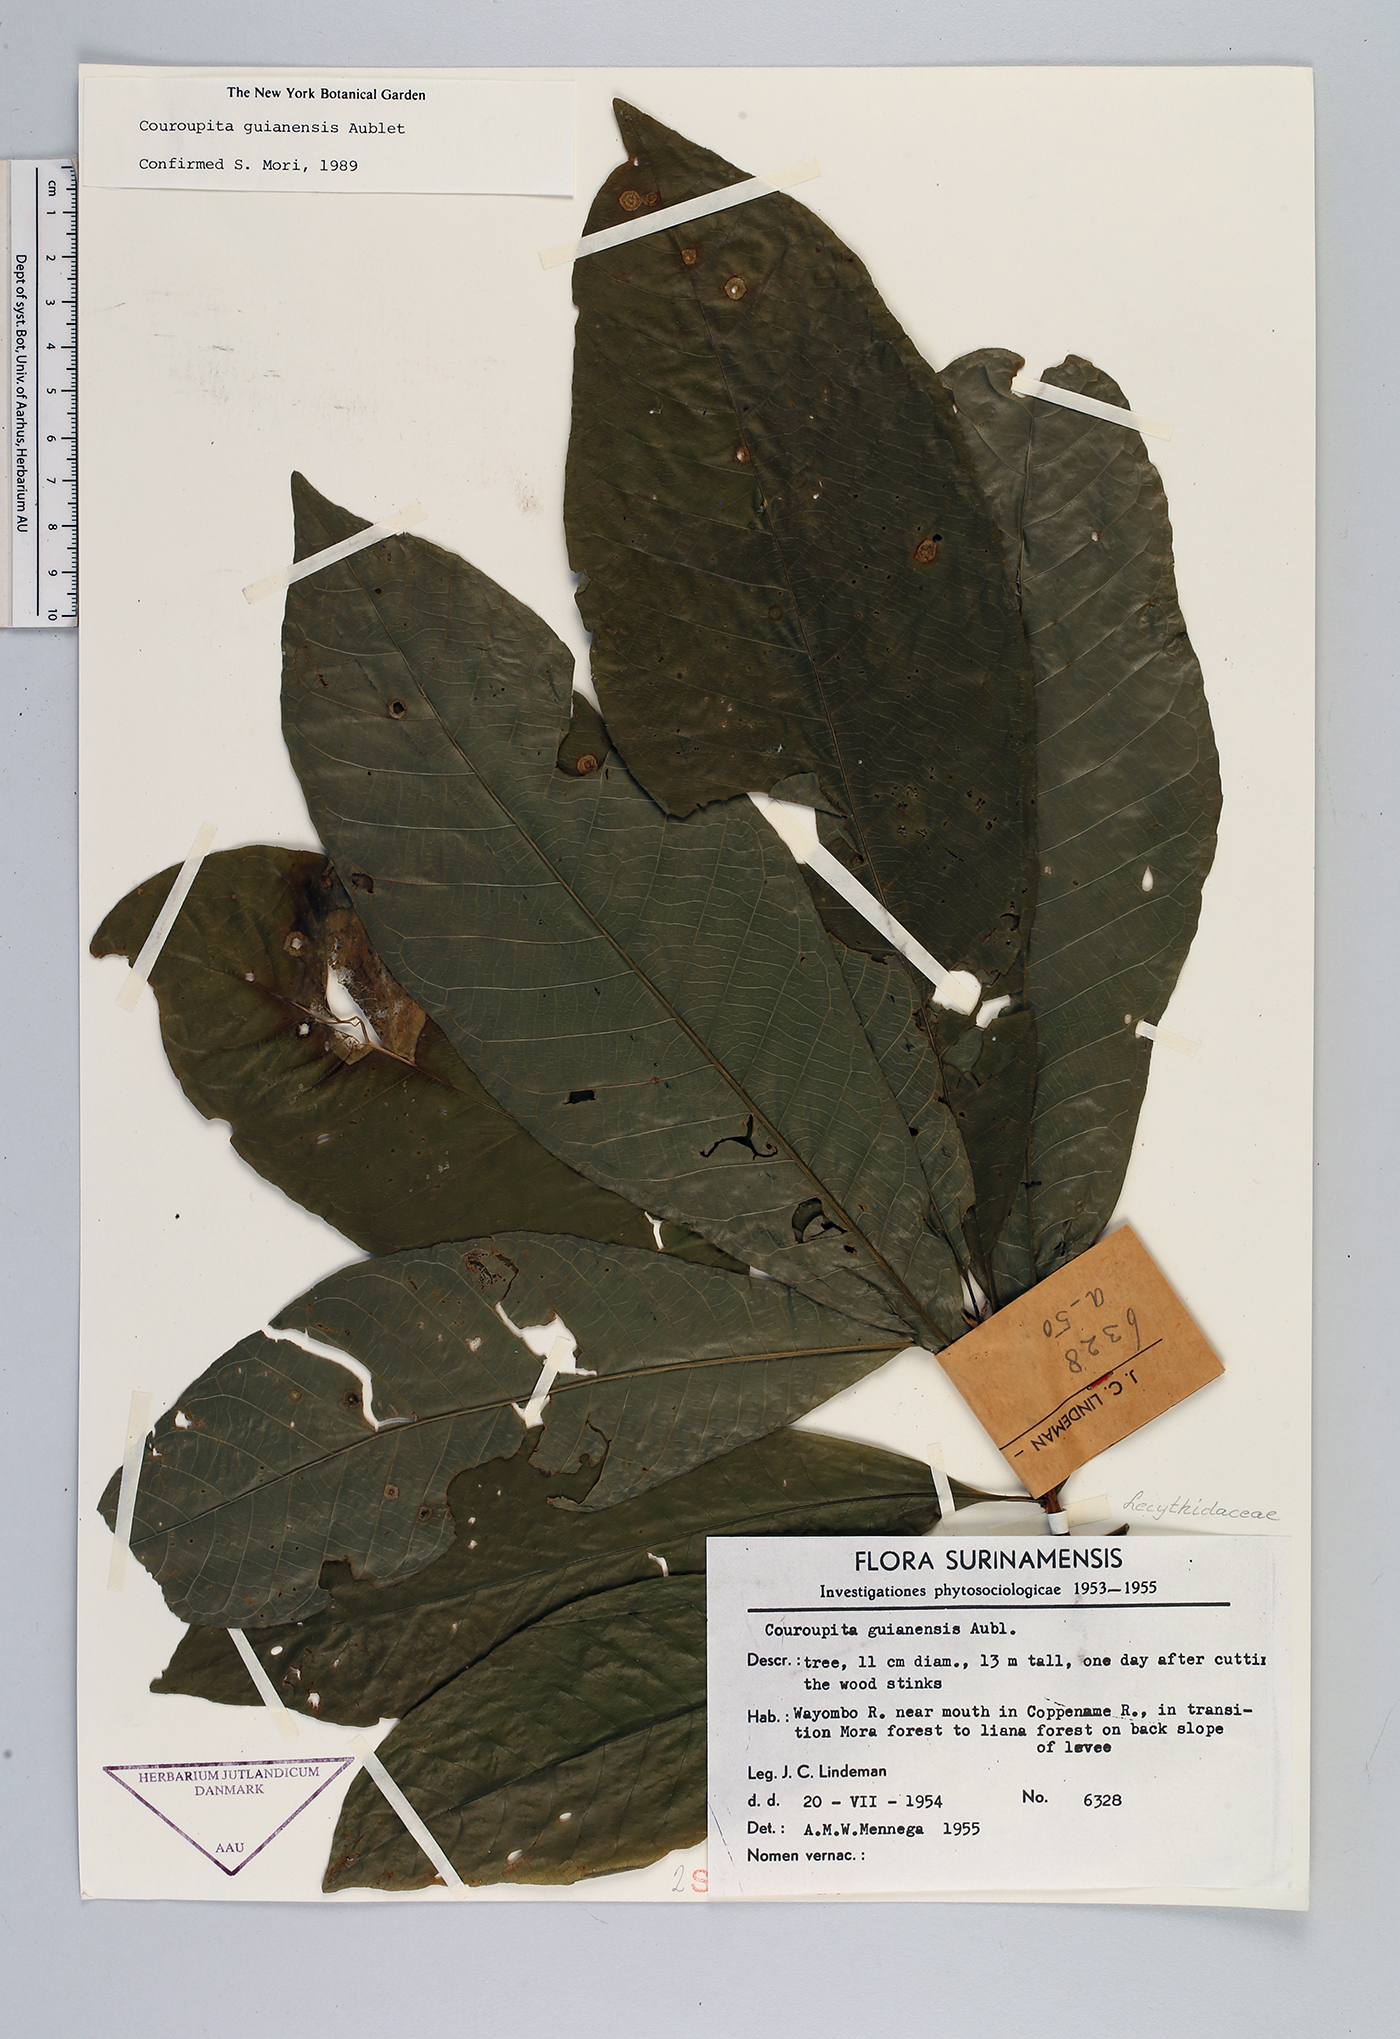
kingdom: Plantae
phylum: Tracheophyta
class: Magnoliopsida
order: Ericales
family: Lecythidaceae
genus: Couroupita
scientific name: Couroupita guianensis
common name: Cannonball tree
